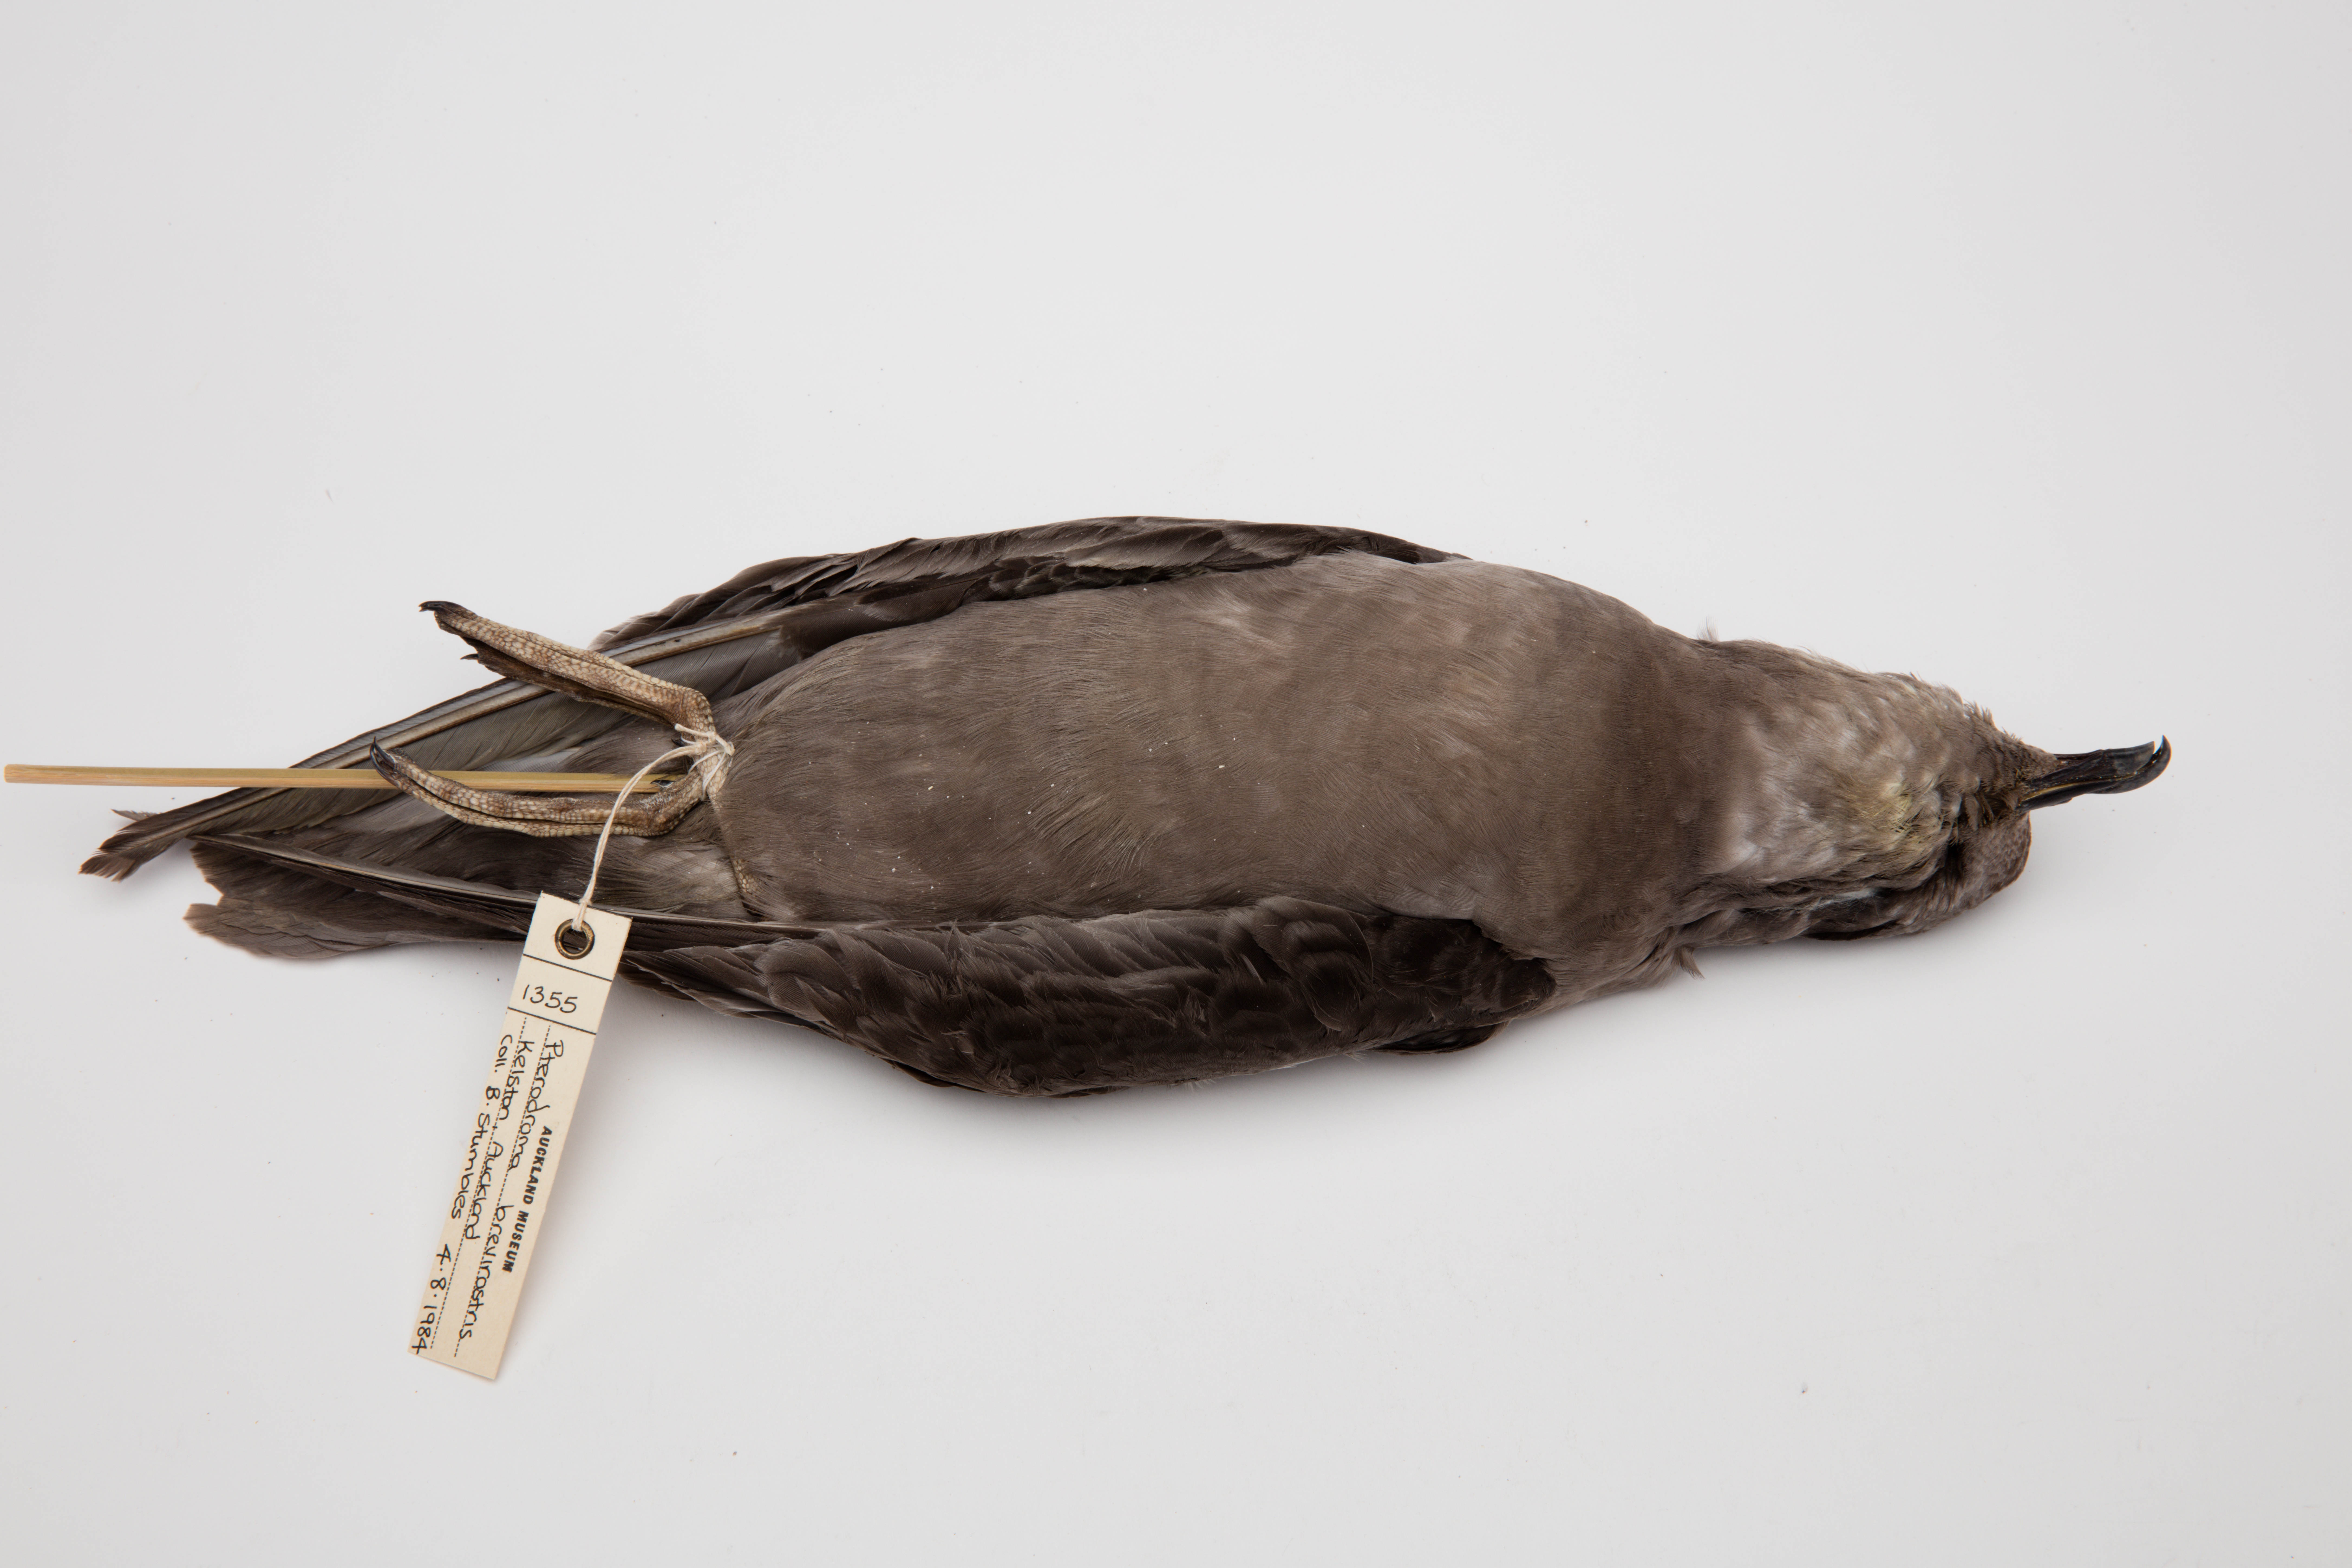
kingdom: Animalia
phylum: Chordata
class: Aves
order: Procellariiformes
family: Procellariidae
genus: Aphrodroma
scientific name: Aphrodroma brevirostris
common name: Kerguelen petrel
